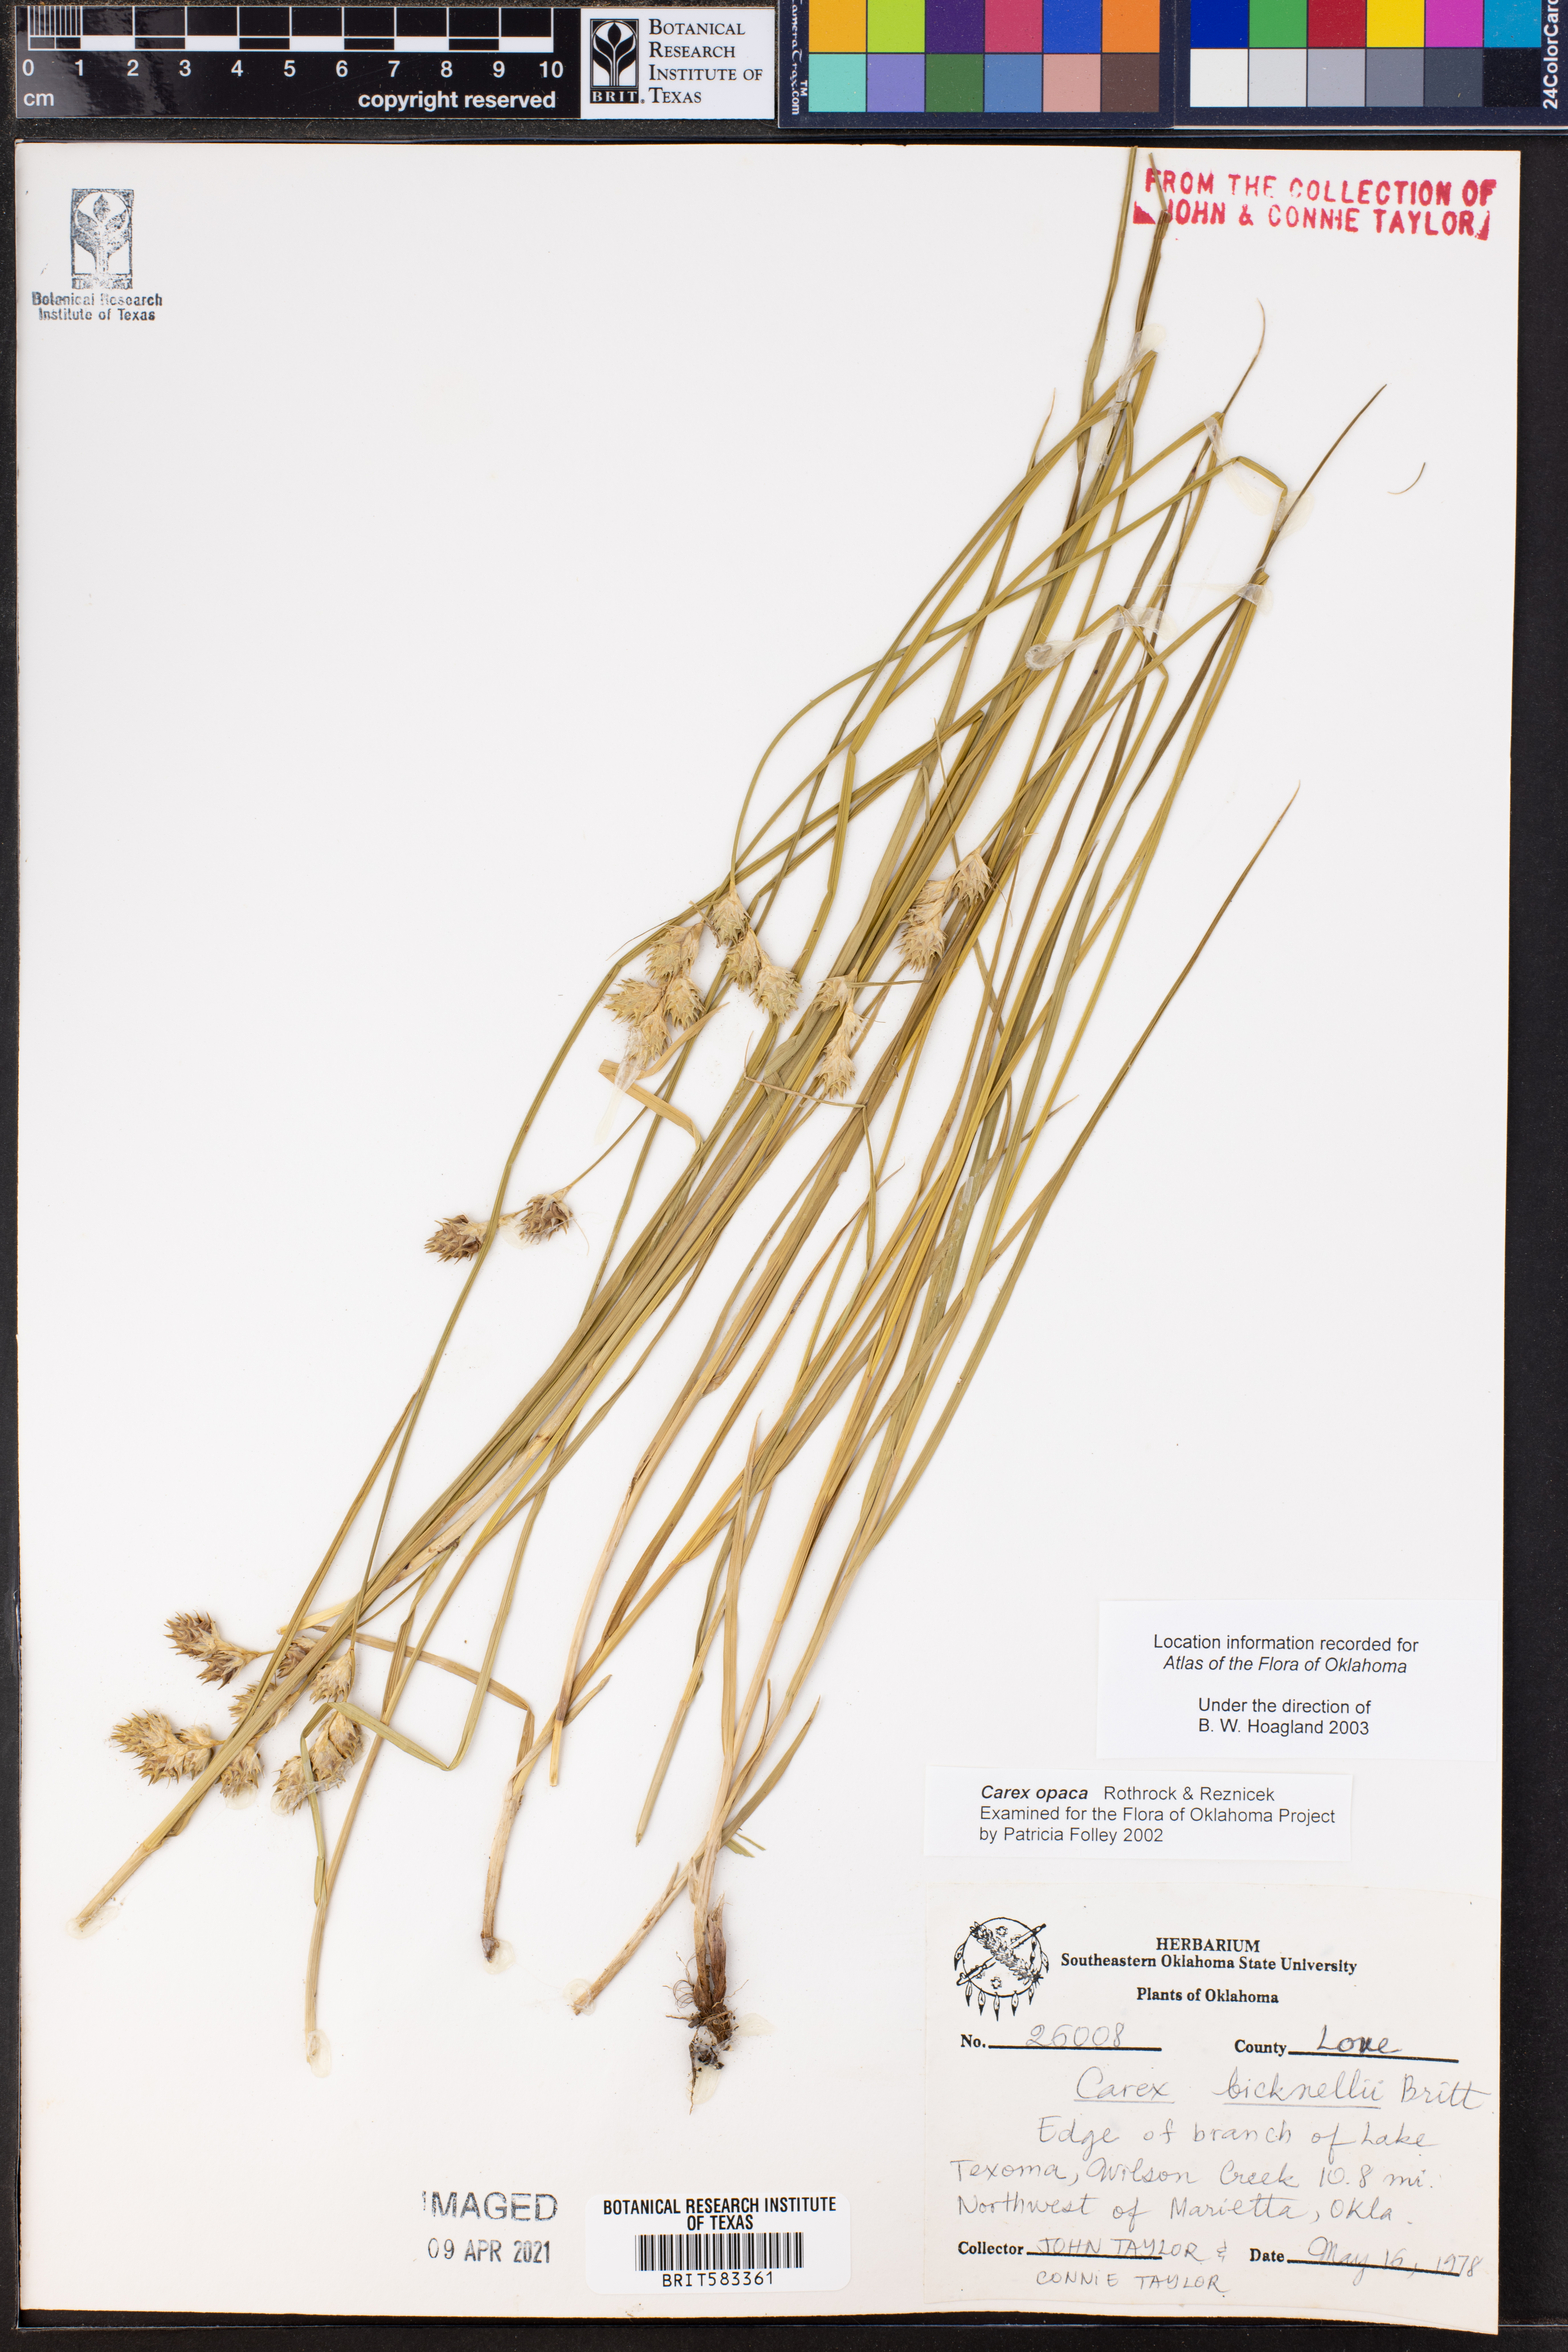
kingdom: Plantae
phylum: Tracheophyta
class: Liliopsida
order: Poales
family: Cyperaceae
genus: Carex
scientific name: Carex opaca
